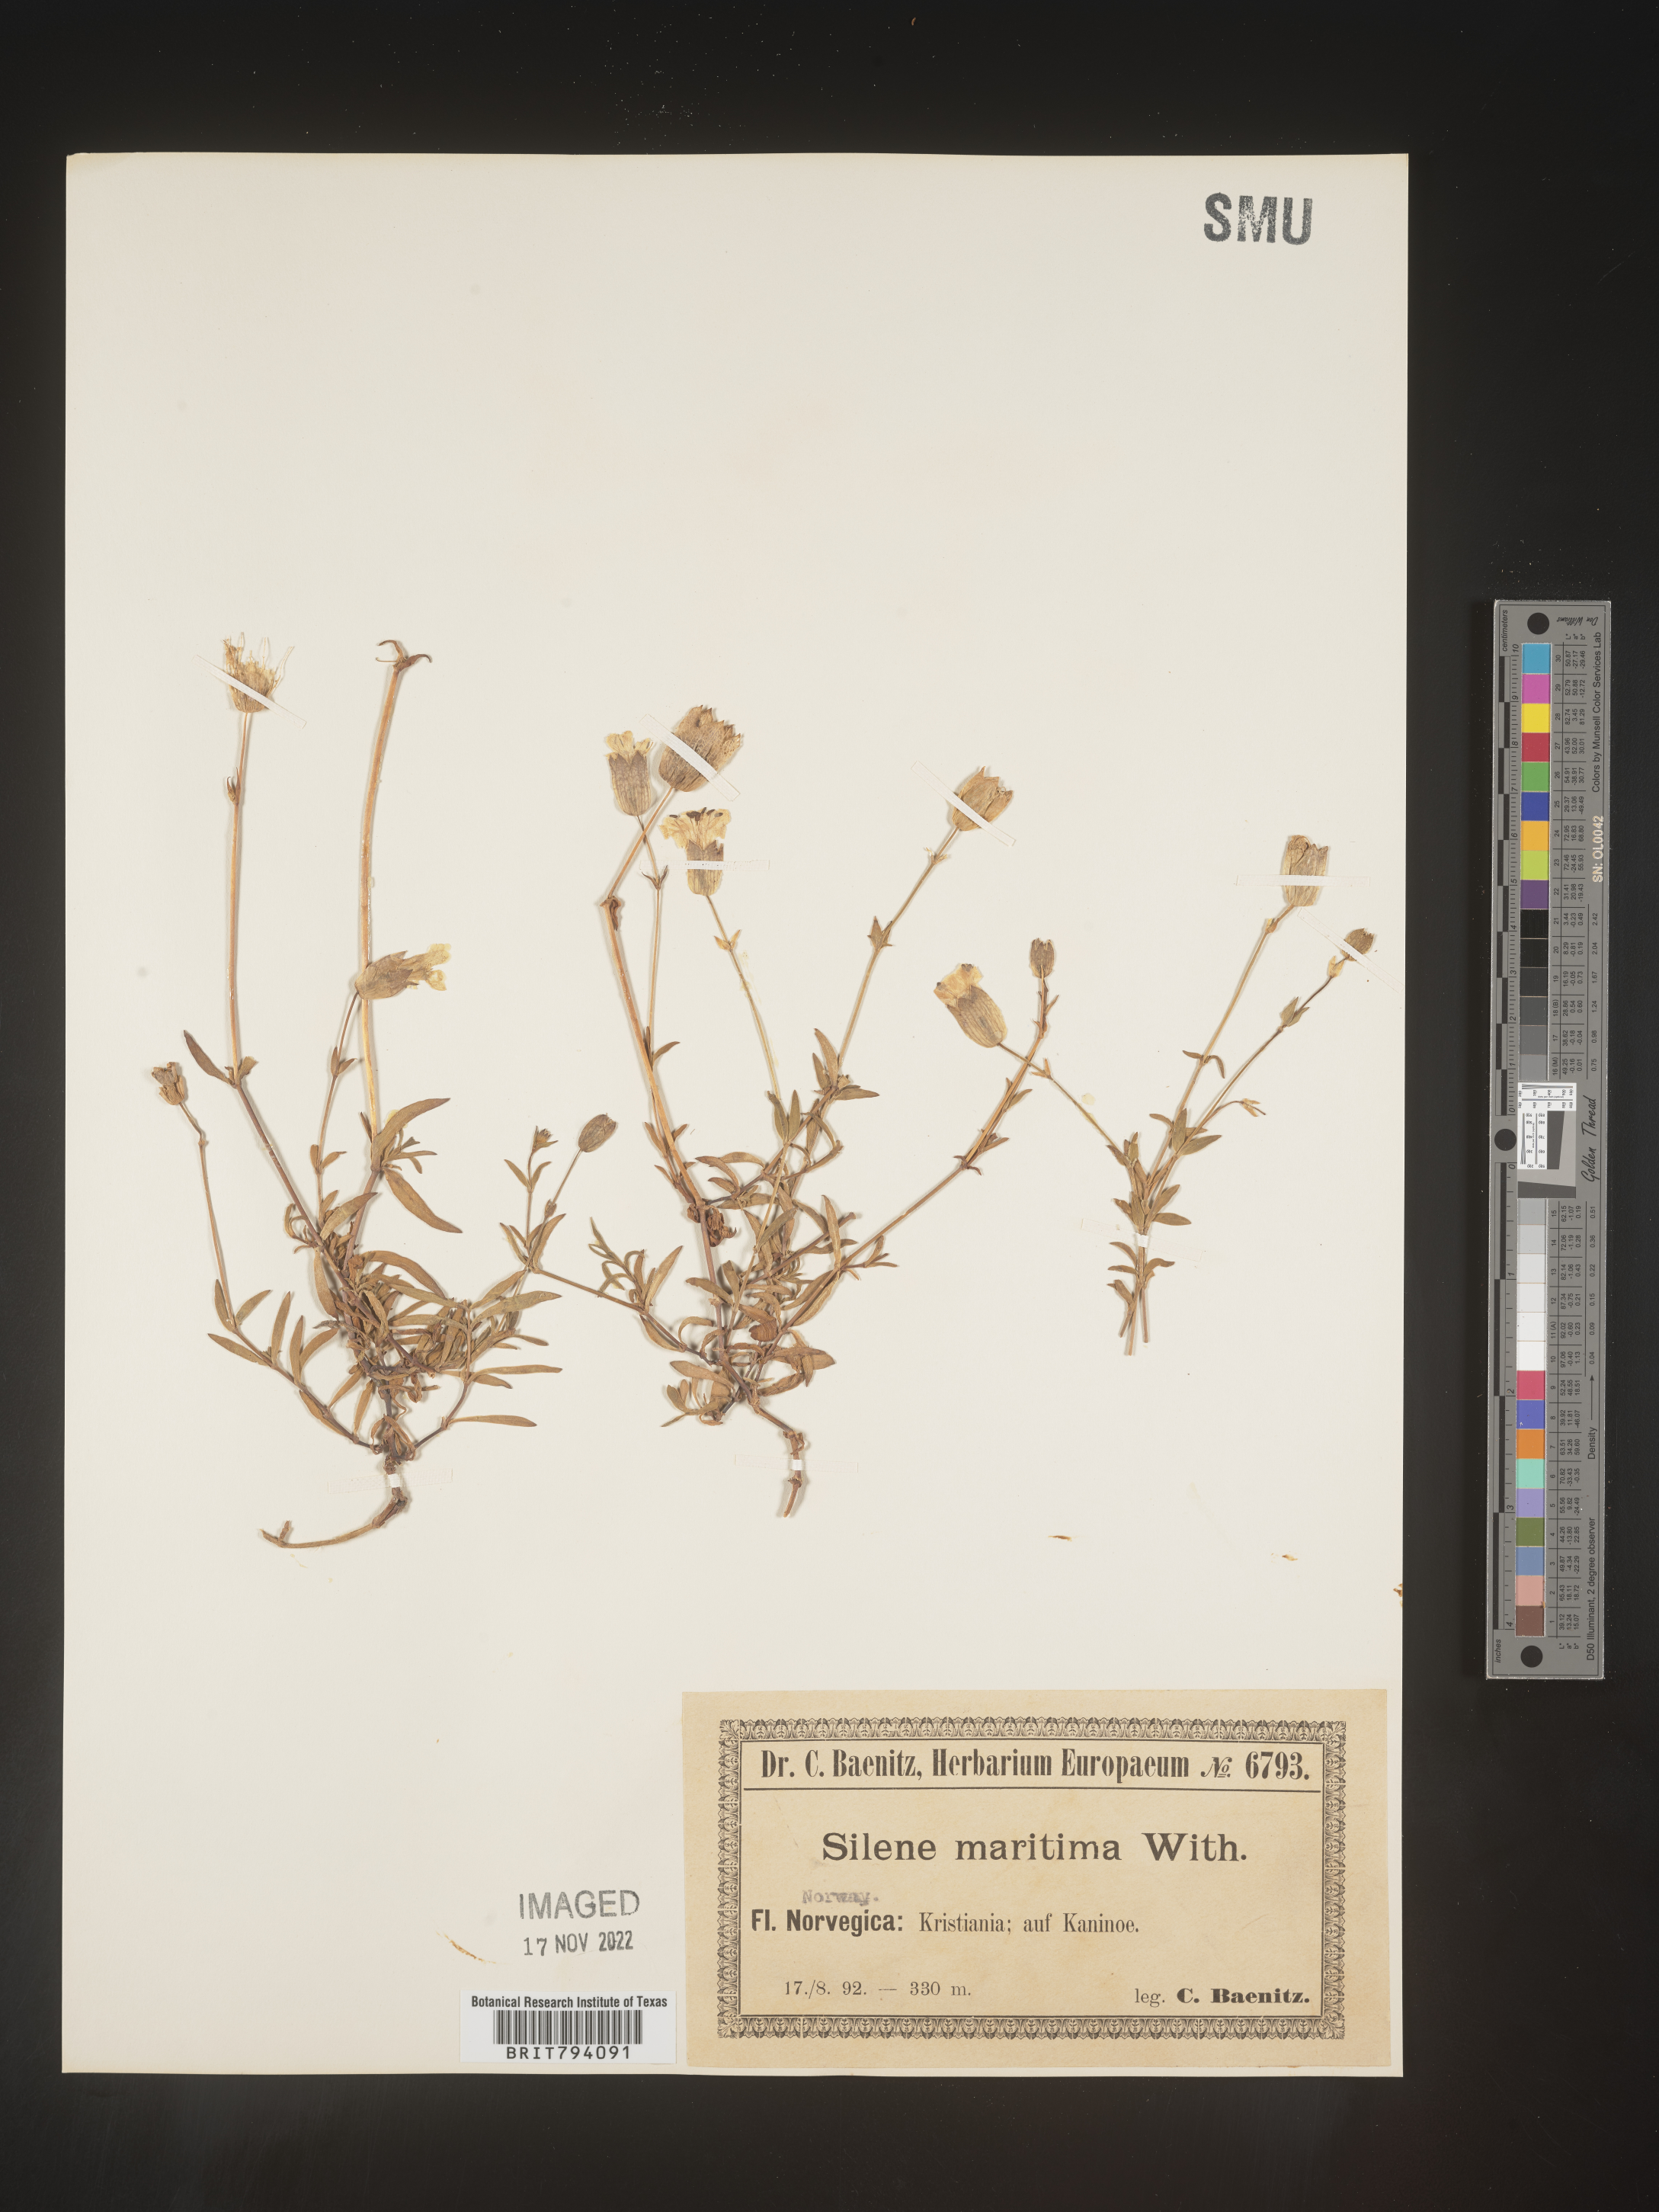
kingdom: Plantae
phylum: Tracheophyta
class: Magnoliopsida
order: Caryophyllales
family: Caryophyllaceae
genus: Silene
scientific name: Silene uniflora
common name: Sea campion
